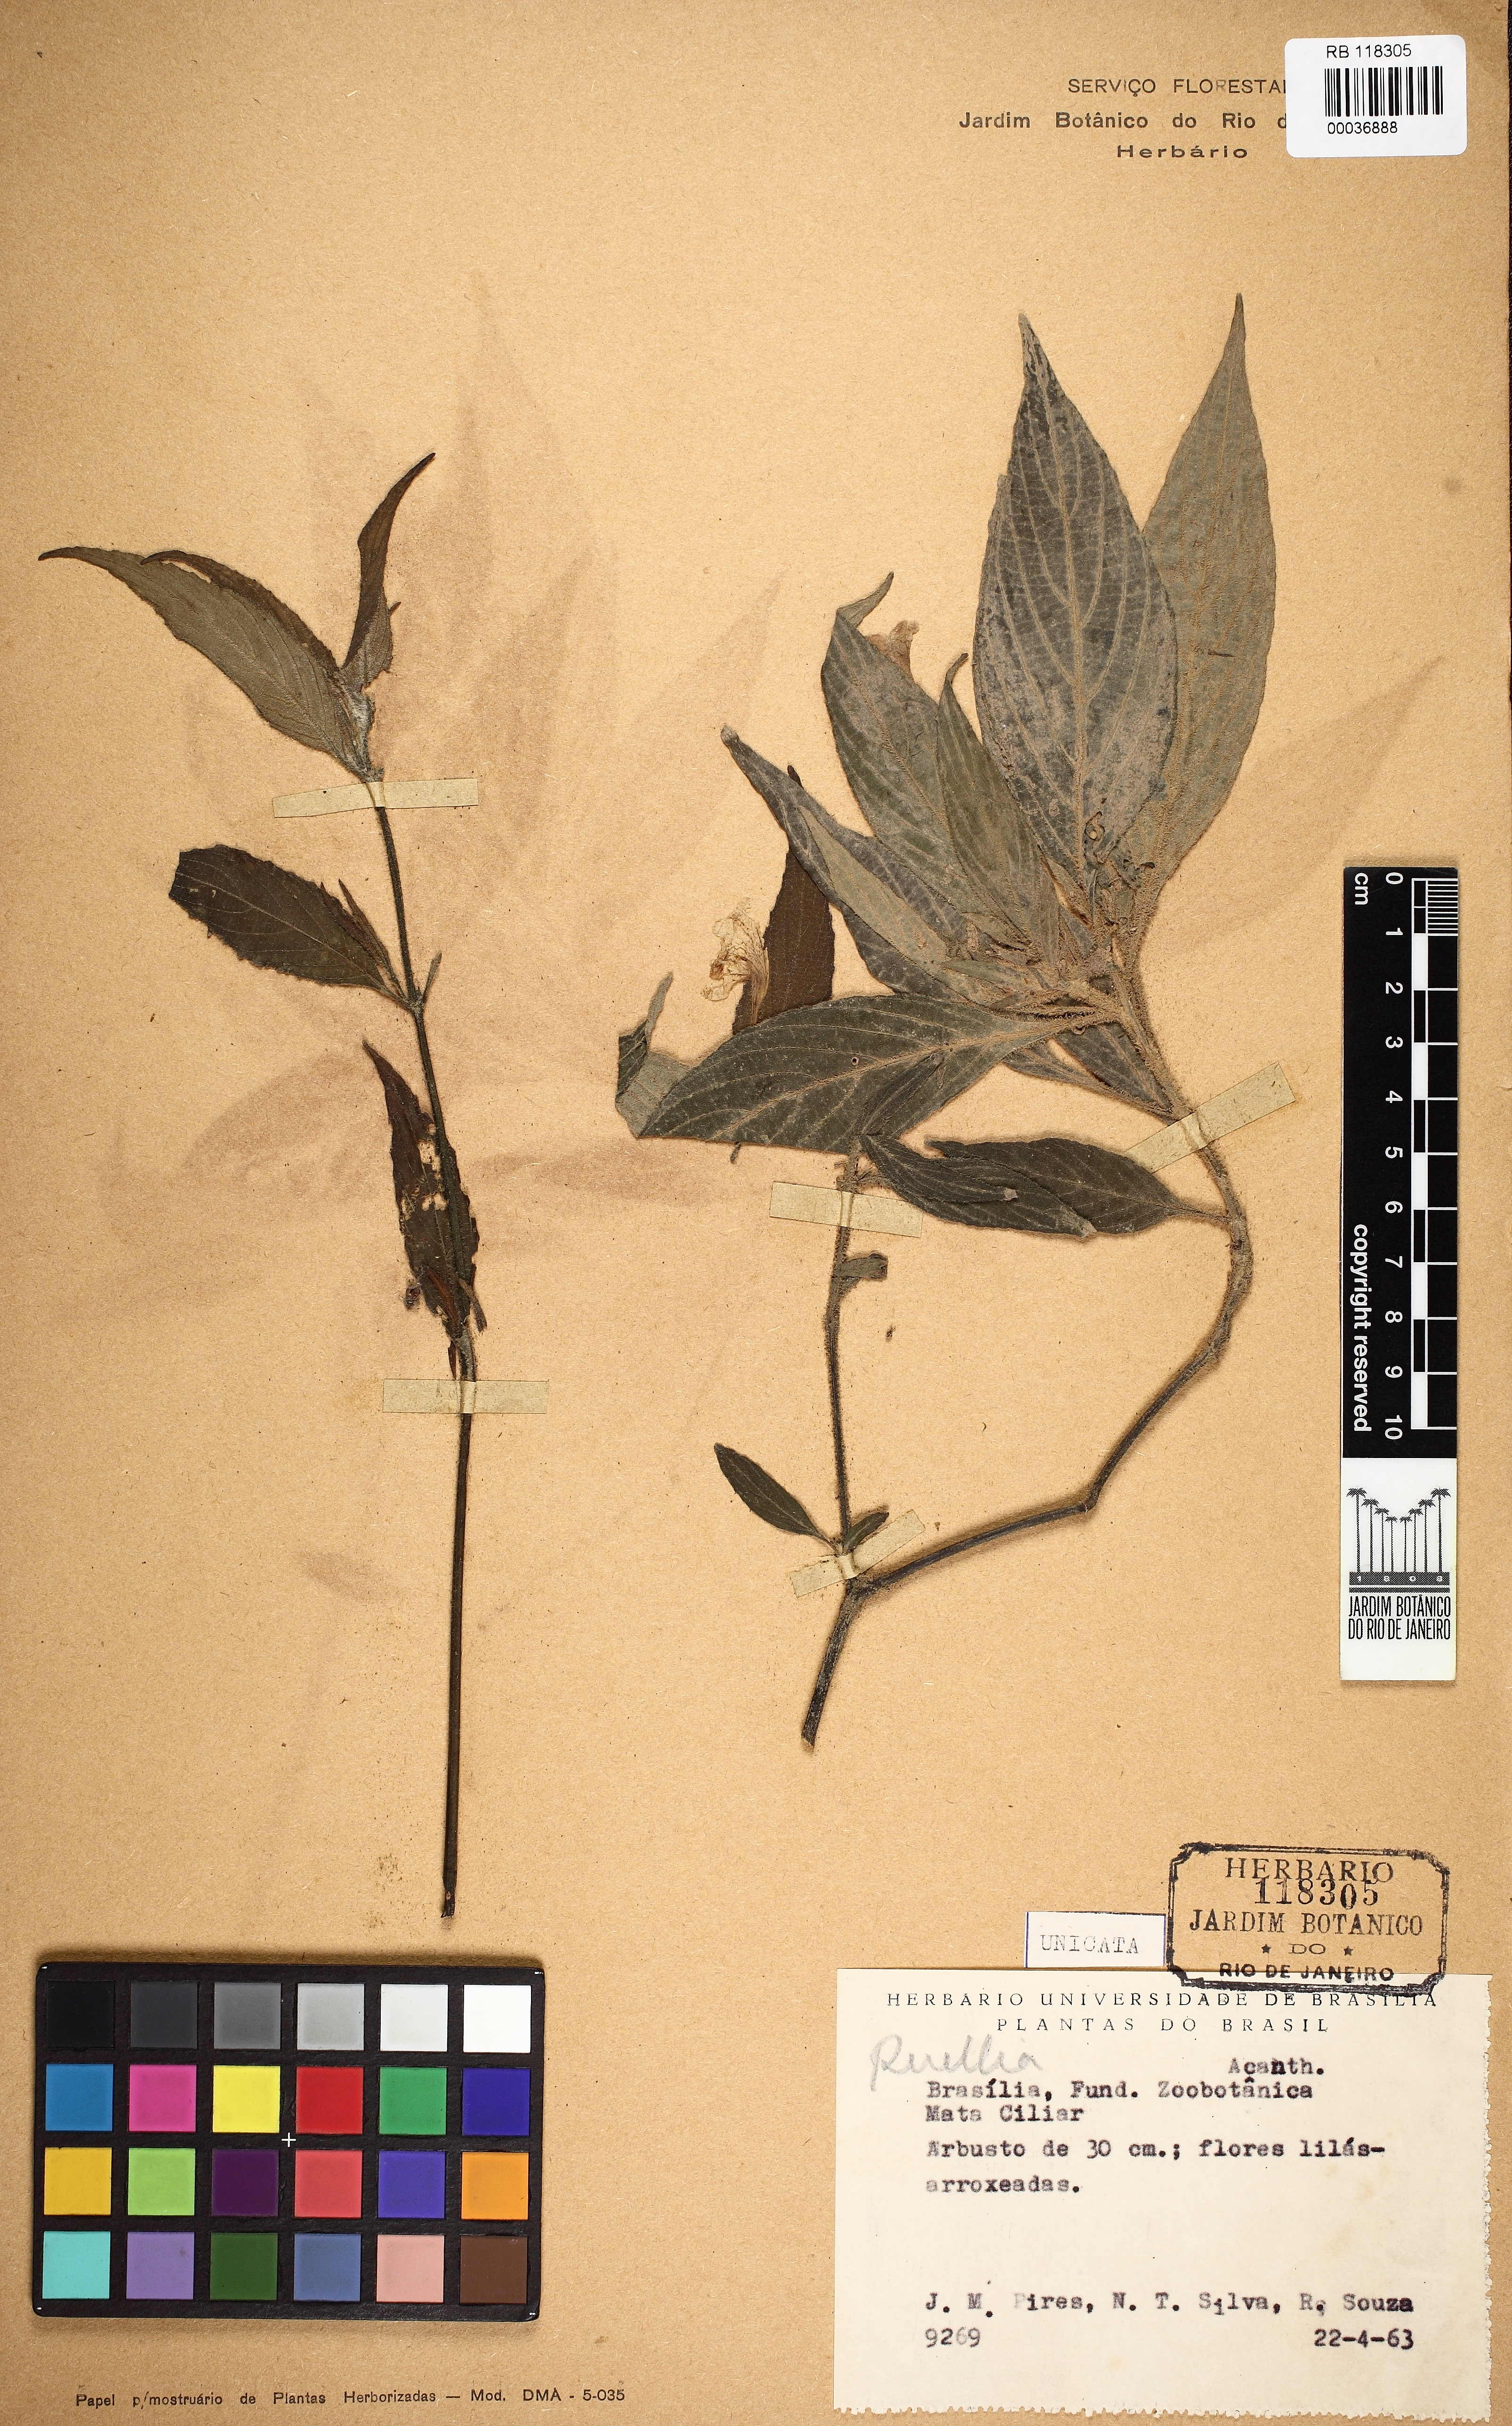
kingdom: Plantae
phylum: Tracheophyta
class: Magnoliopsida
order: Lamiales
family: Acanthaceae
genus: Ruellia
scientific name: Ruellia jussieuoides
